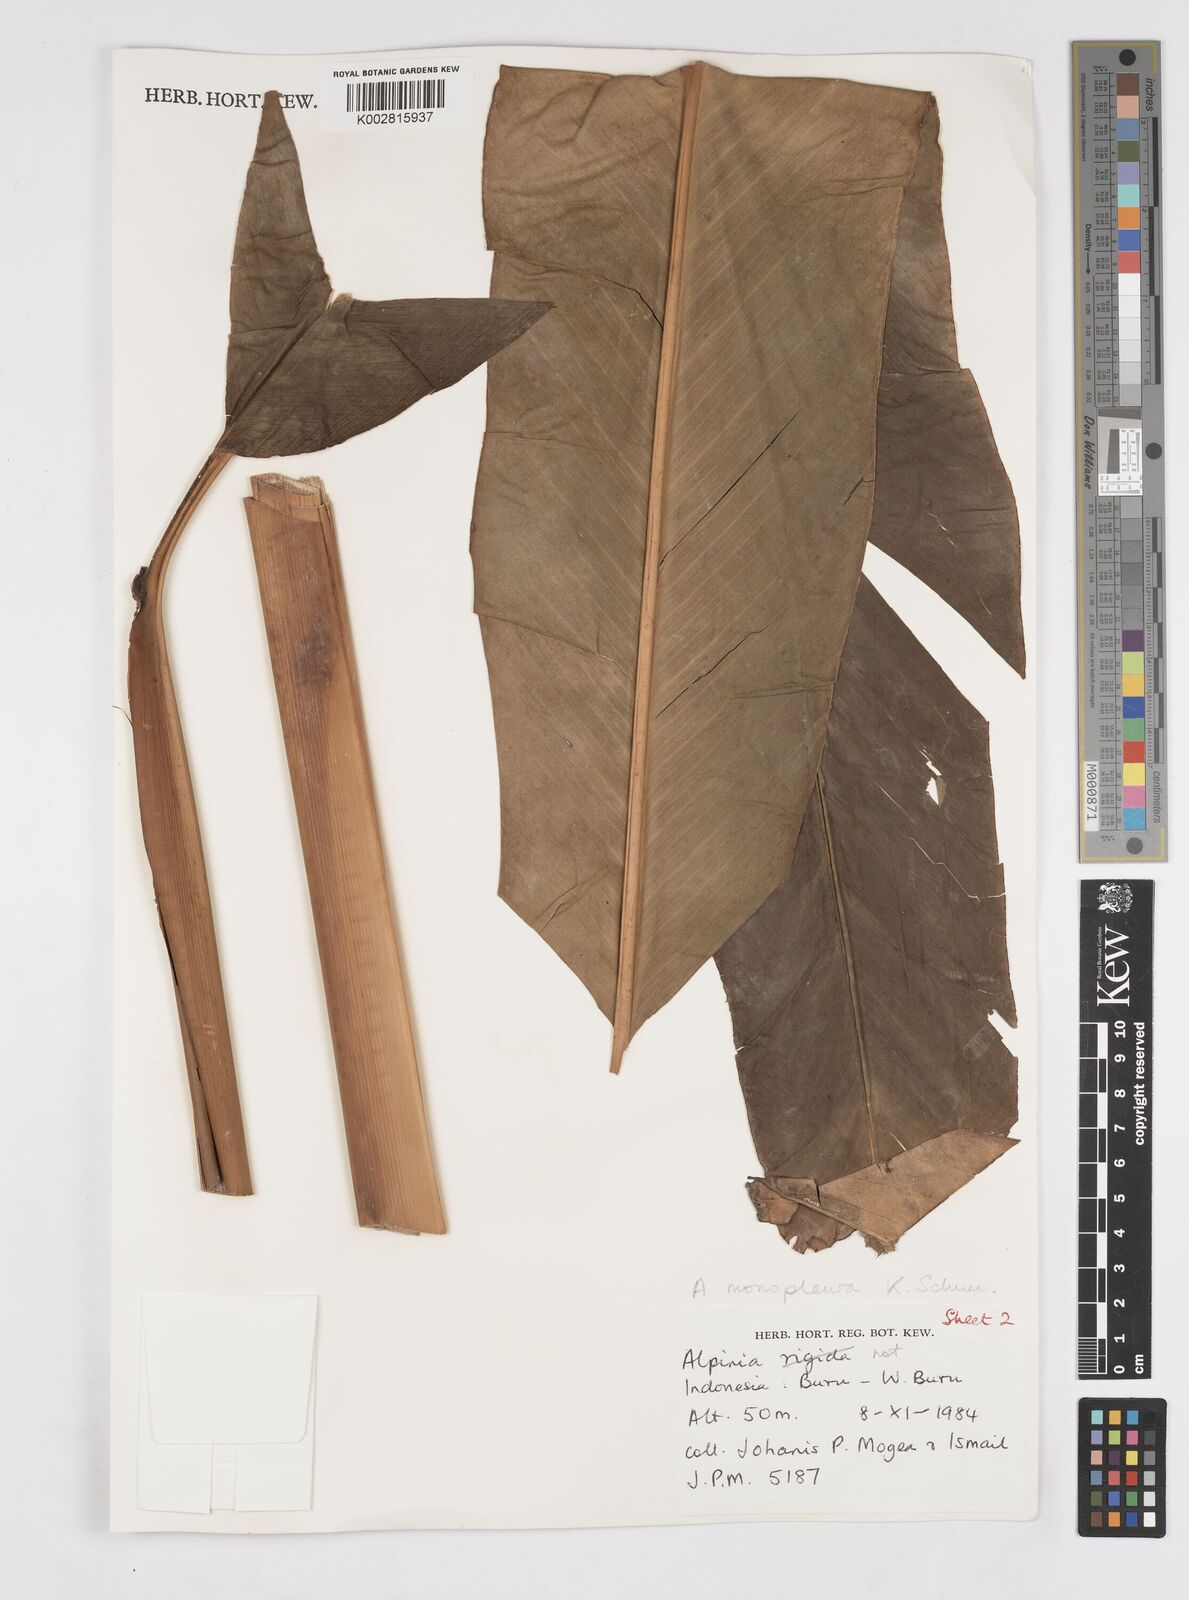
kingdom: Plantae
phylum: Tracheophyta
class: Liliopsida
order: Zingiberales
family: Zingiberaceae
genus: Alpinia
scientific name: Alpinia monopleura
